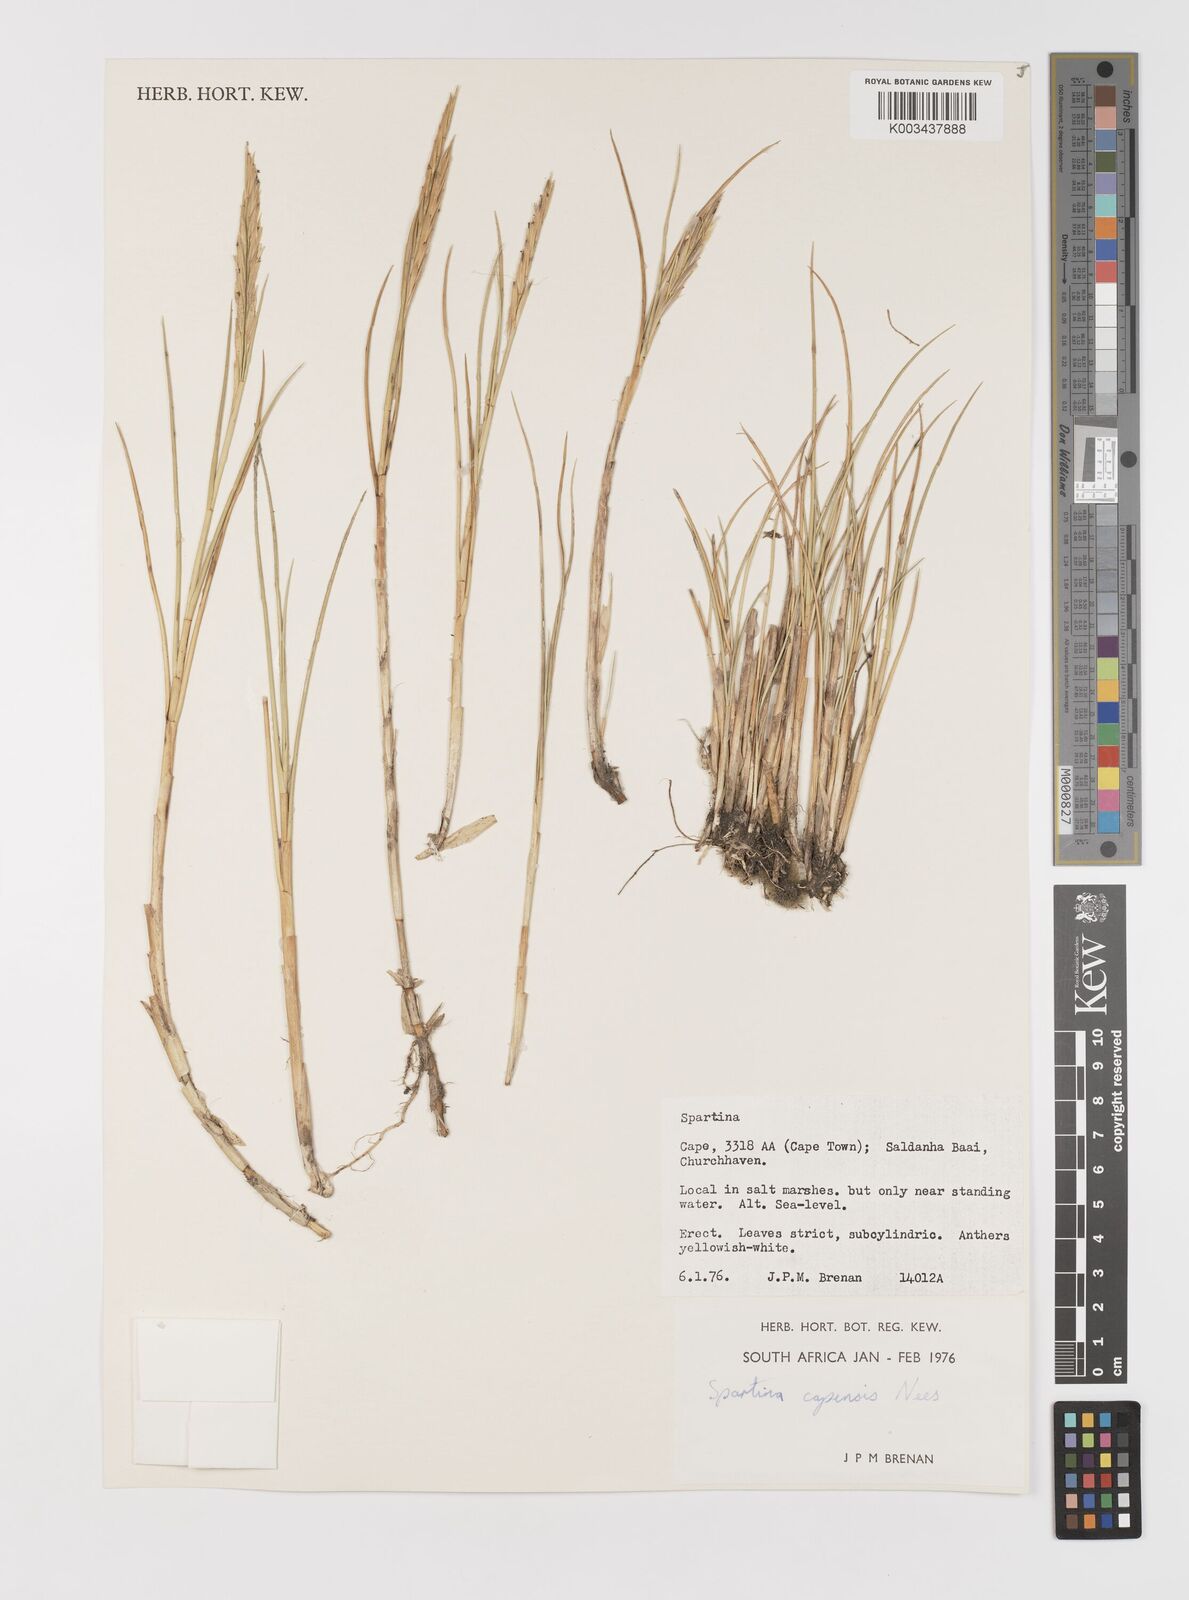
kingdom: Plantae
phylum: Tracheophyta
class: Liliopsida
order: Poales
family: Poaceae
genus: Sporobolus
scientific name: Sporobolus maritimus
